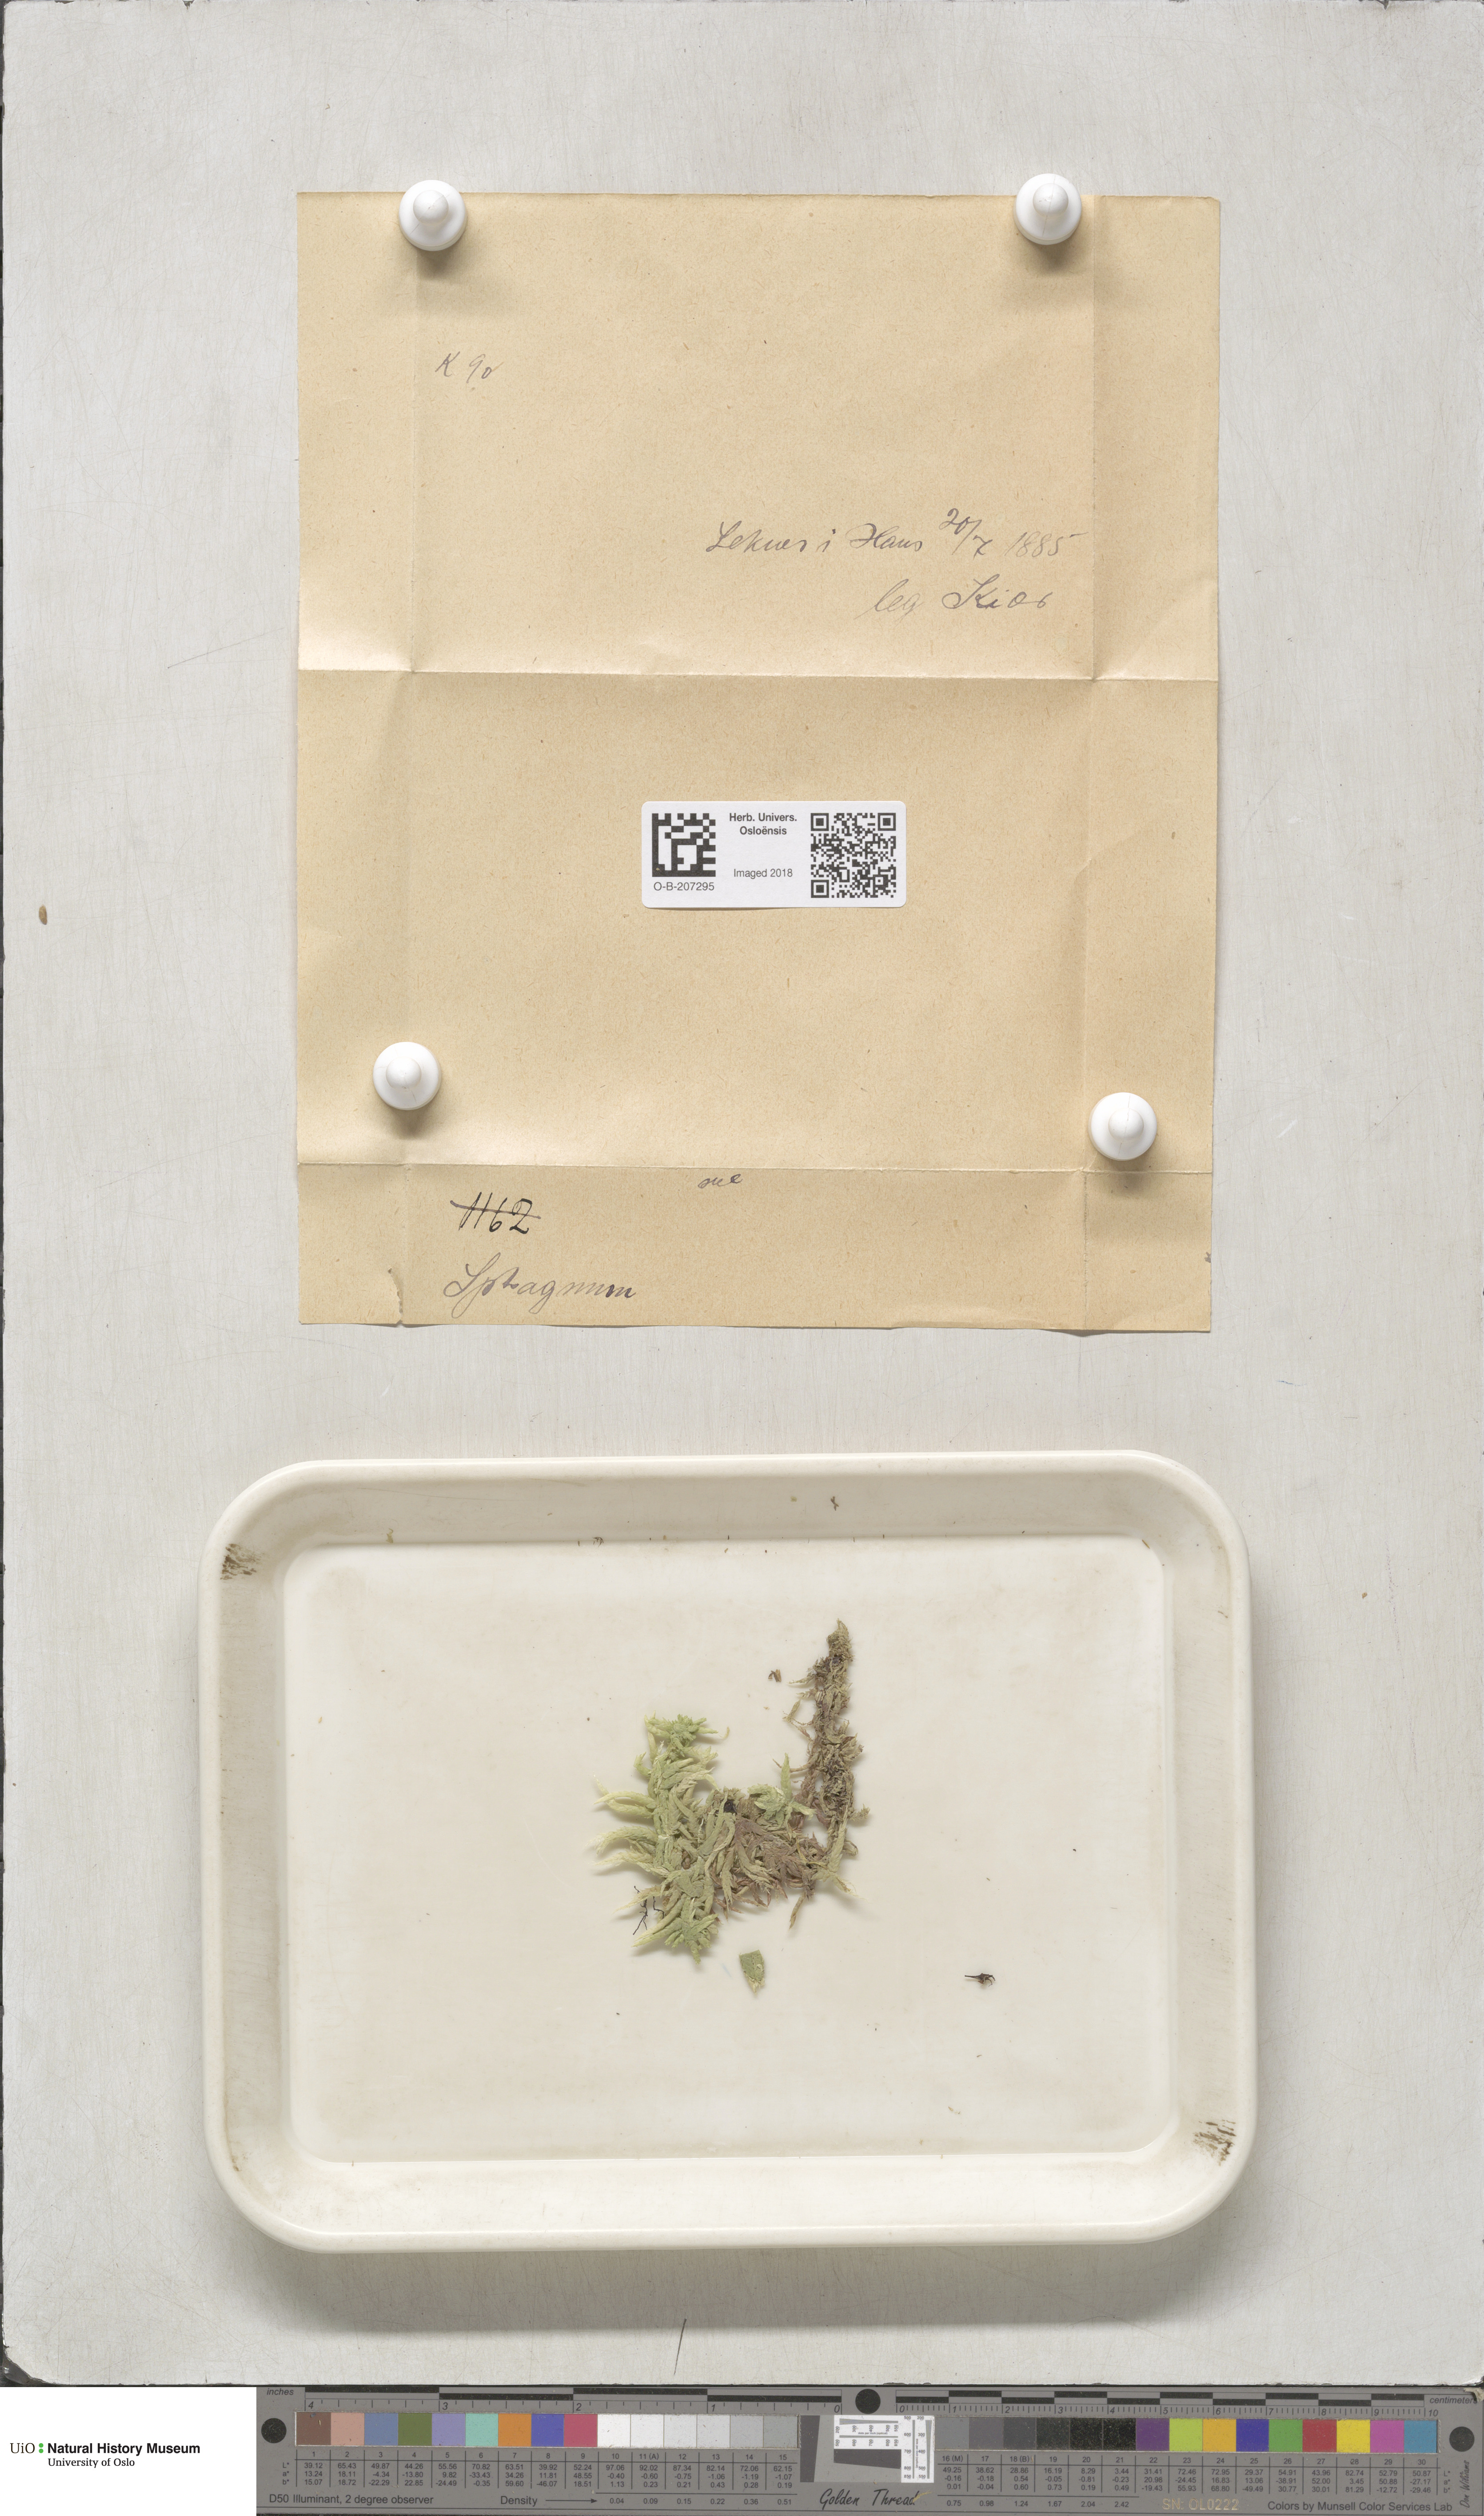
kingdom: Plantae
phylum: Bryophyta
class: Sphagnopsida
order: Sphagnales
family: Sphagnaceae
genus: Sphagnum
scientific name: Sphagnum subsecundum
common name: Orange peat moss
